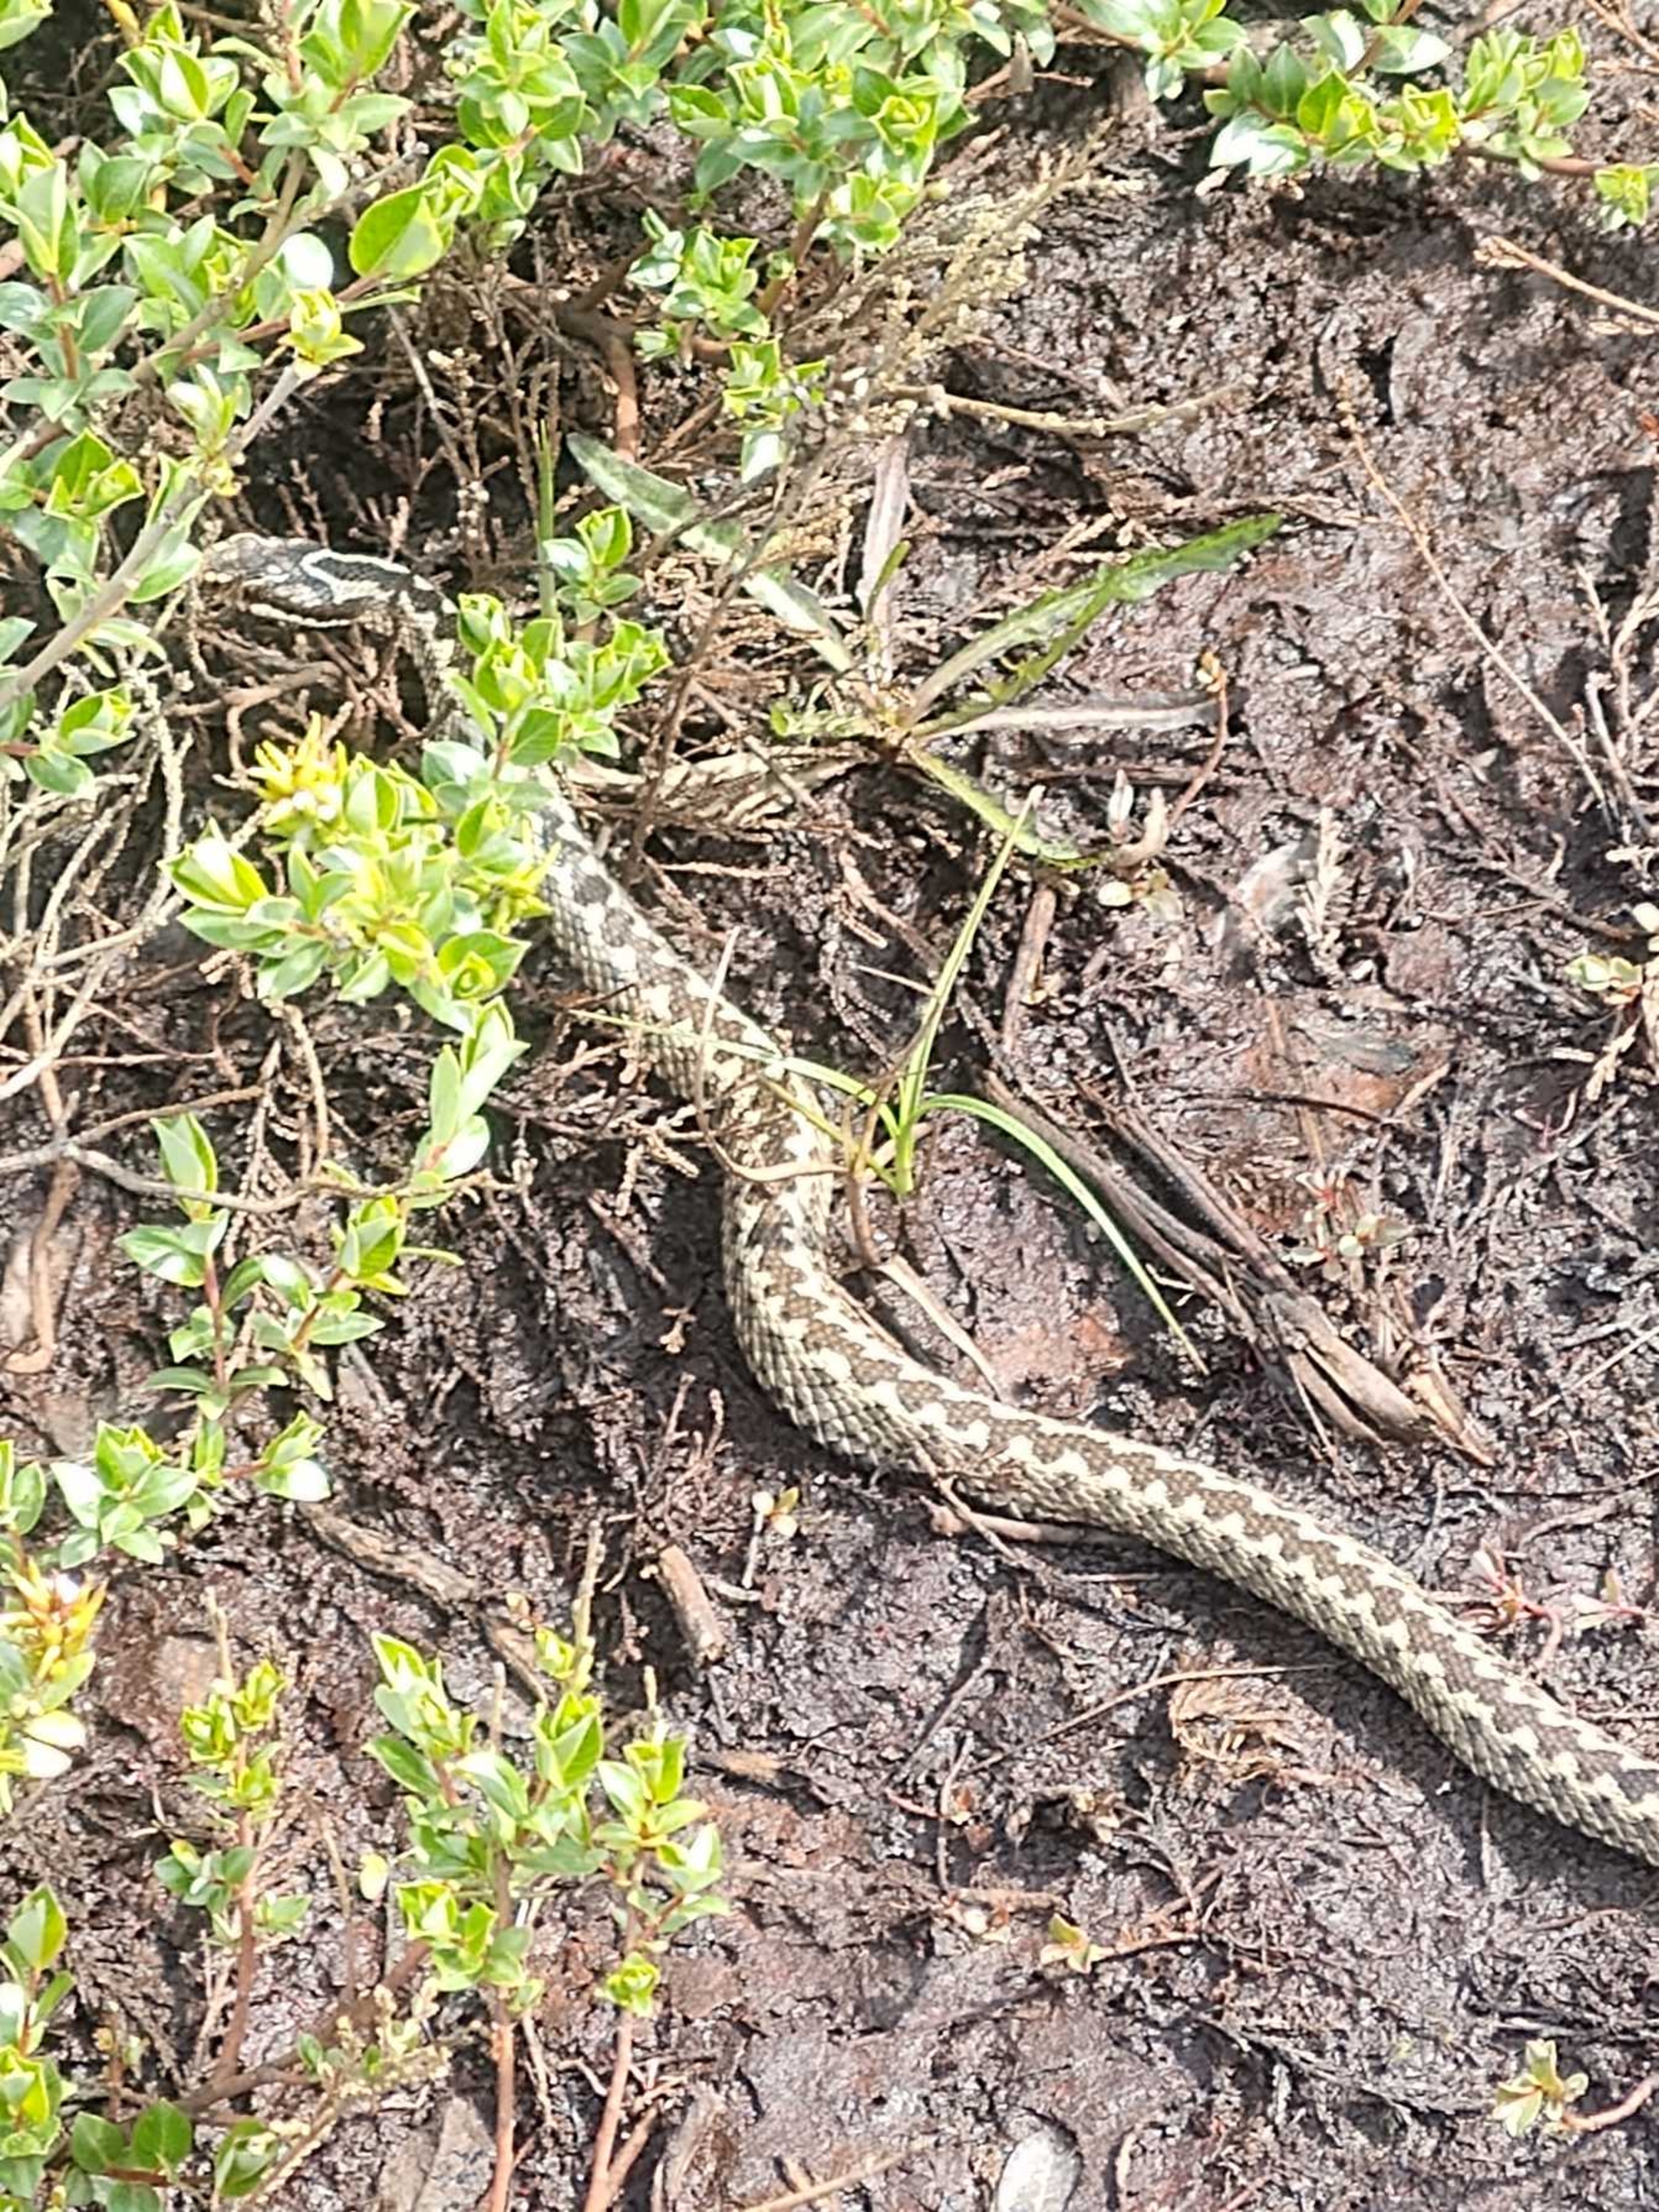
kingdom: Animalia
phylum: Chordata
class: Squamata
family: Viperidae
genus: Vipera
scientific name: Vipera berus
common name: Hugorm
